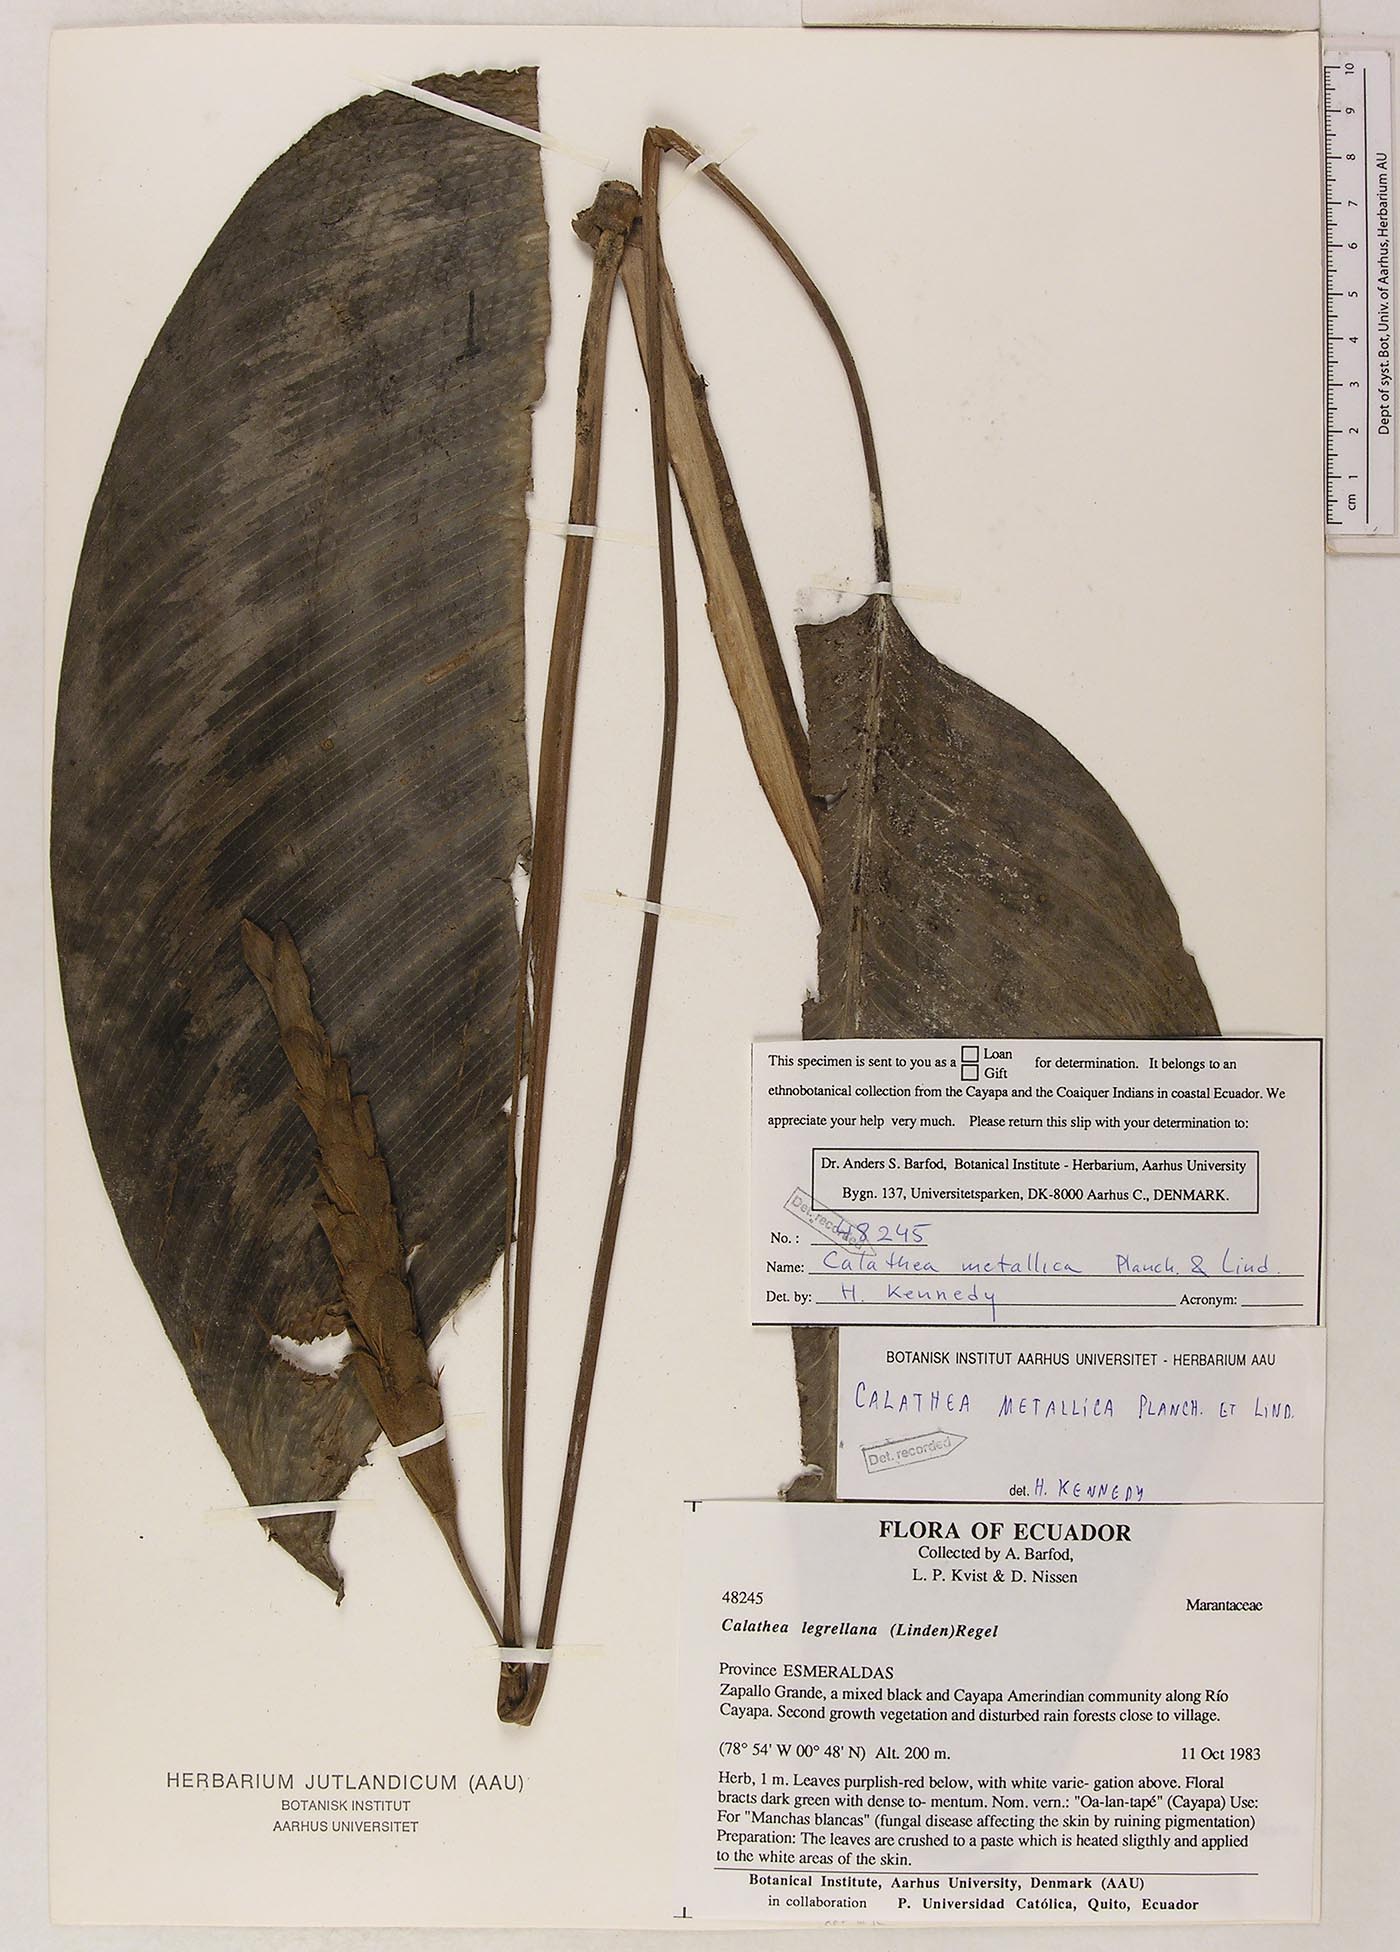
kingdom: Plantae
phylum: Tracheophyta
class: Liliopsida
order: Zingiberales
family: Marantaceae
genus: Goeppertia
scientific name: Goeppertia metallica
